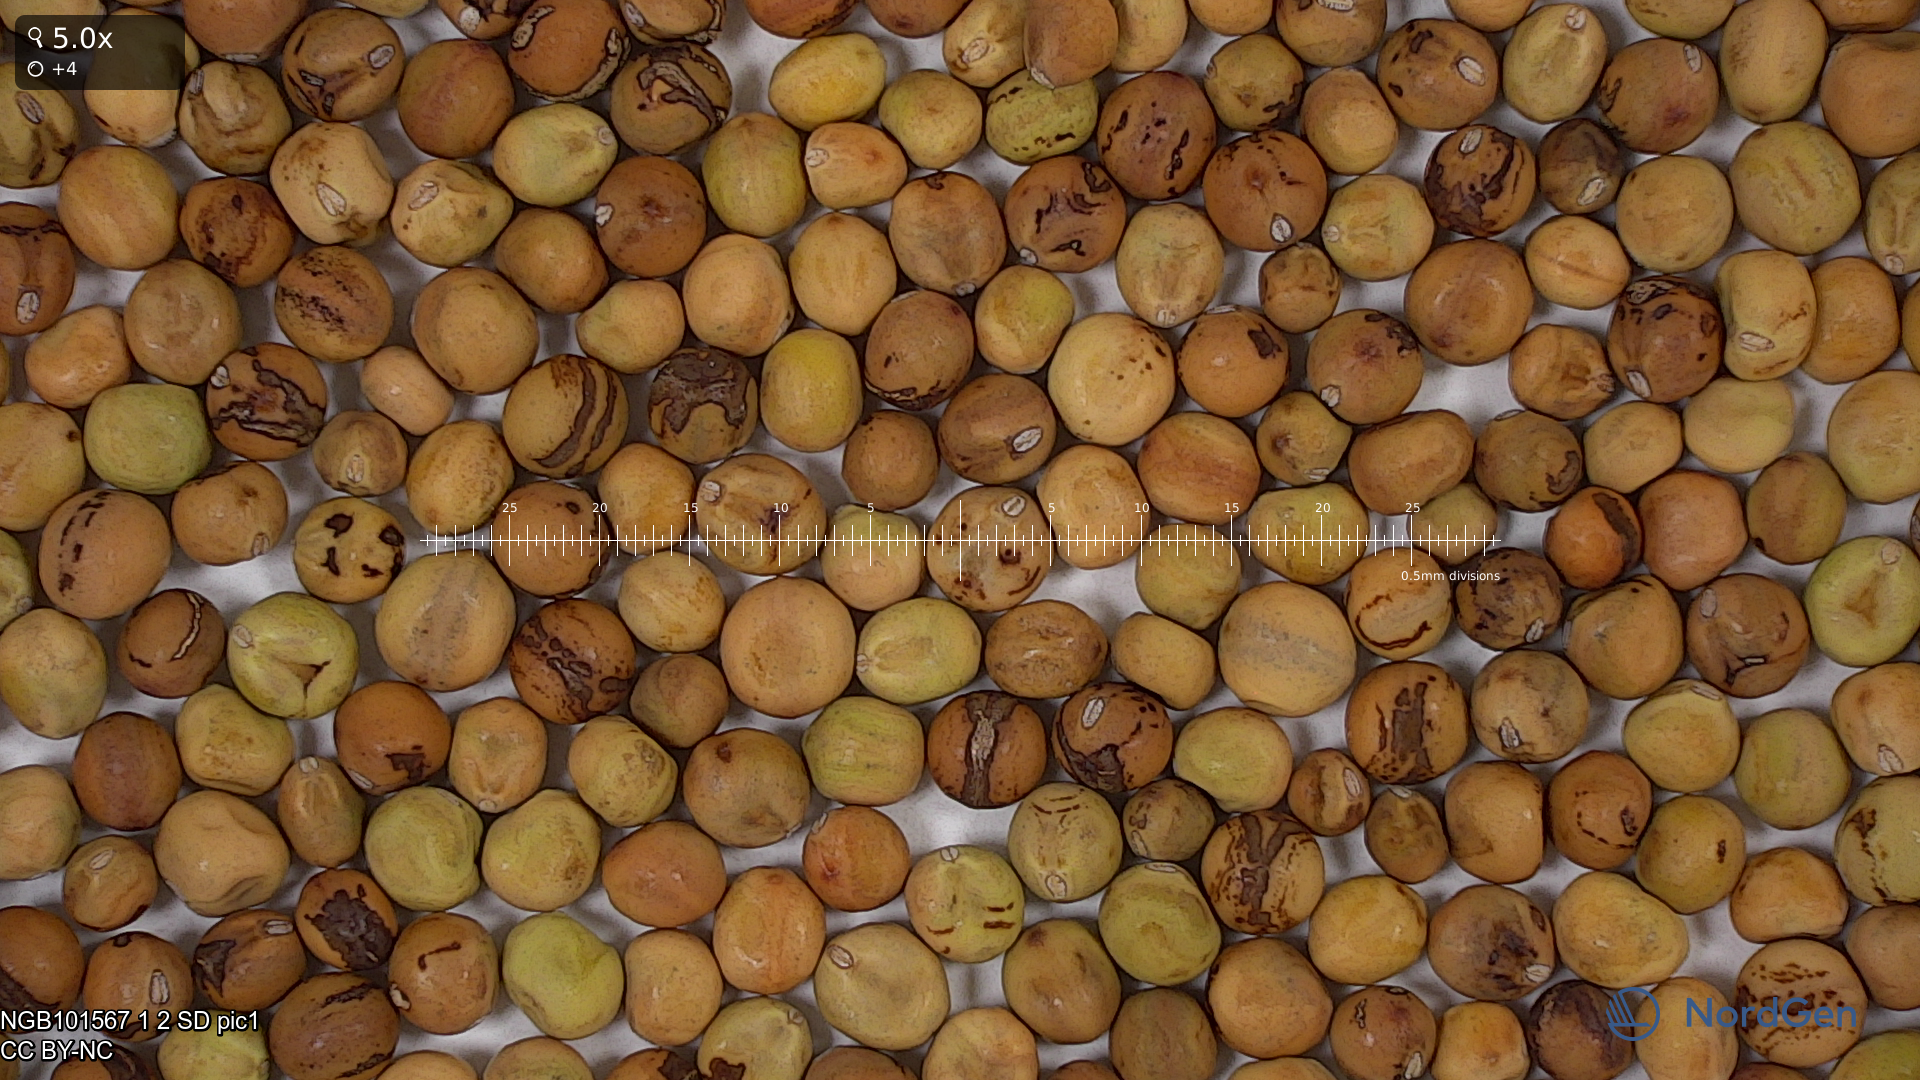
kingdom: Plantae
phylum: Tracheophyta
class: Magnoliopsida
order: Fabales
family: Fabaceae
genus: Lathyrus
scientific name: Lathyrus oleraceus
